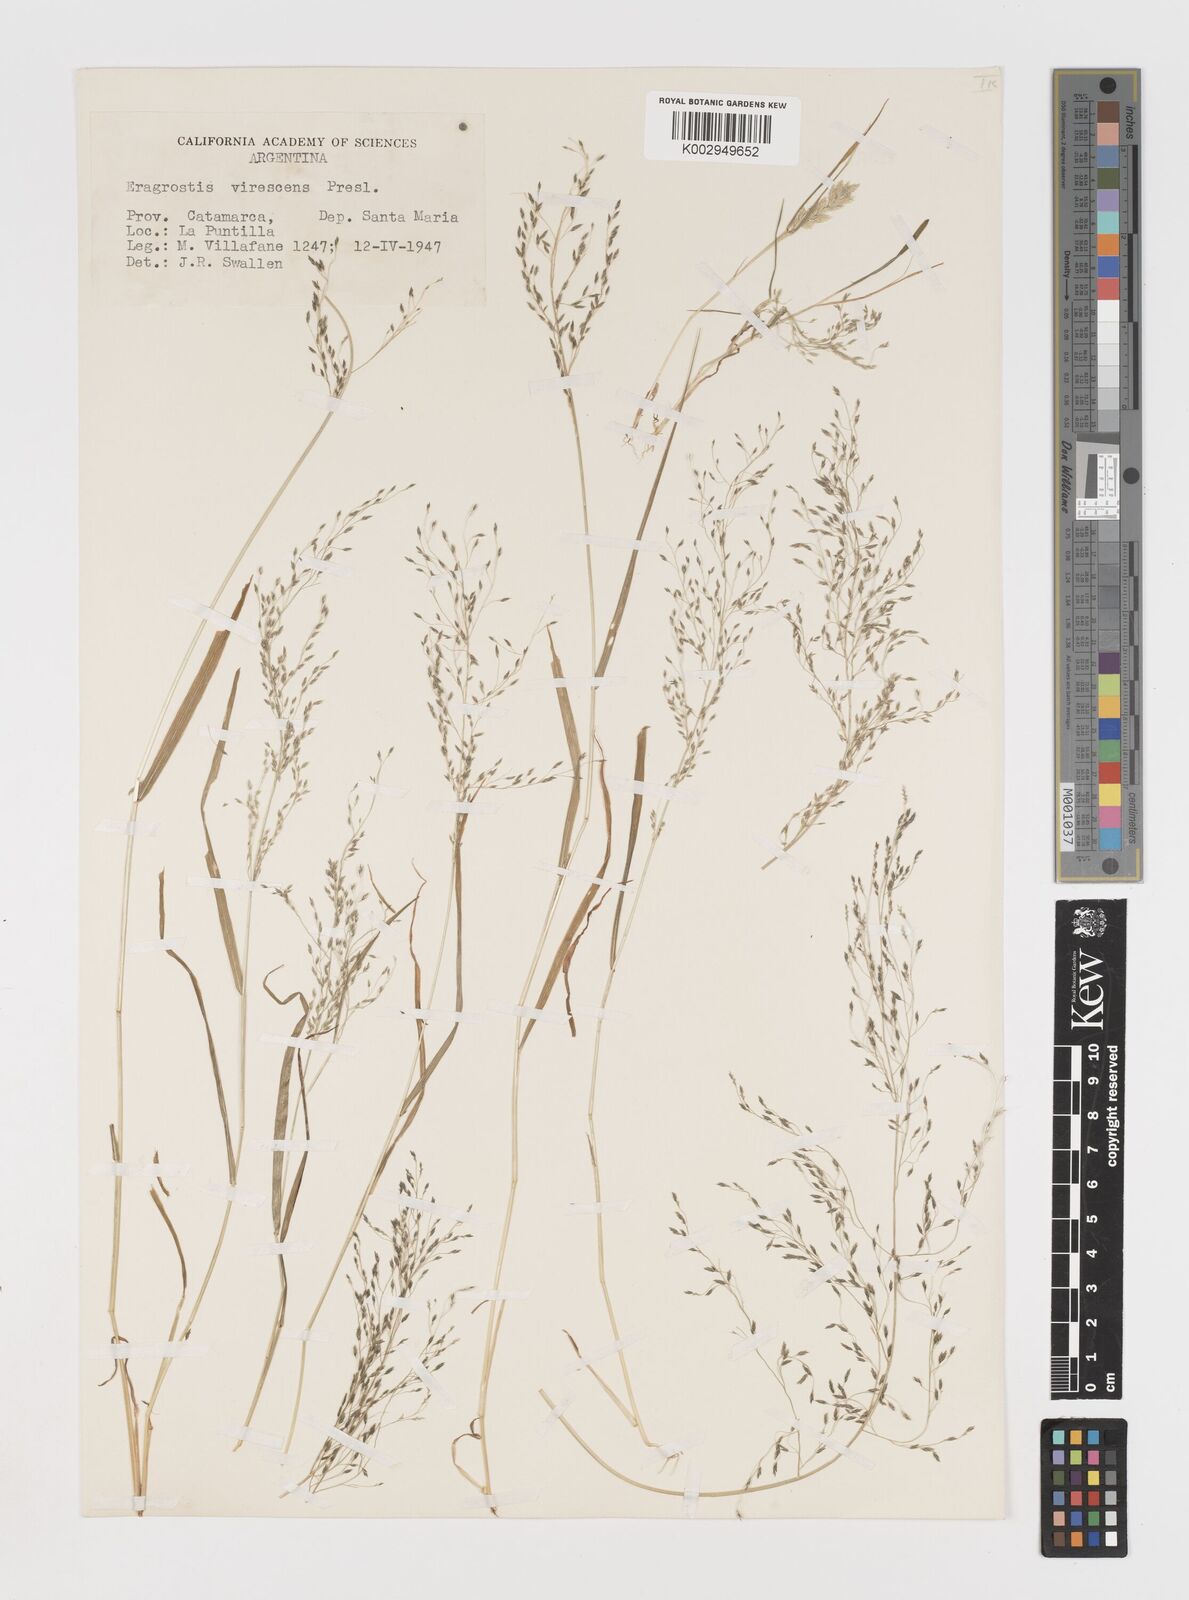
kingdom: Plantae
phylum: Tracheophyta
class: Liliopsida
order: Poales
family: Poaceae
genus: Eragrostis
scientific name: Eragrostis mexicana
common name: Mexican love grass
